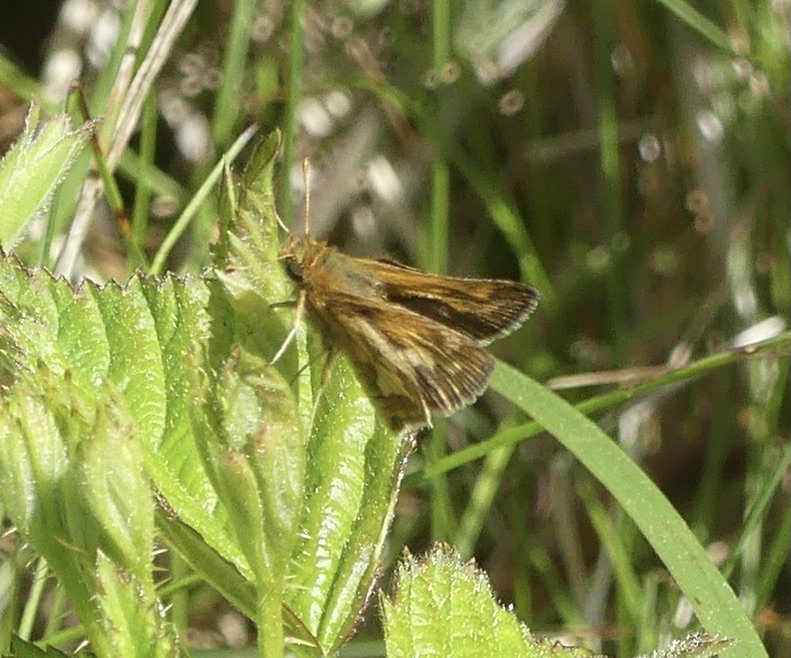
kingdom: Animalia
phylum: Arthropoda
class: Insecta
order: Lepidoptera
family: Hesperiidae
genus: Polites
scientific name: Polites coras
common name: Peck's Skipper
